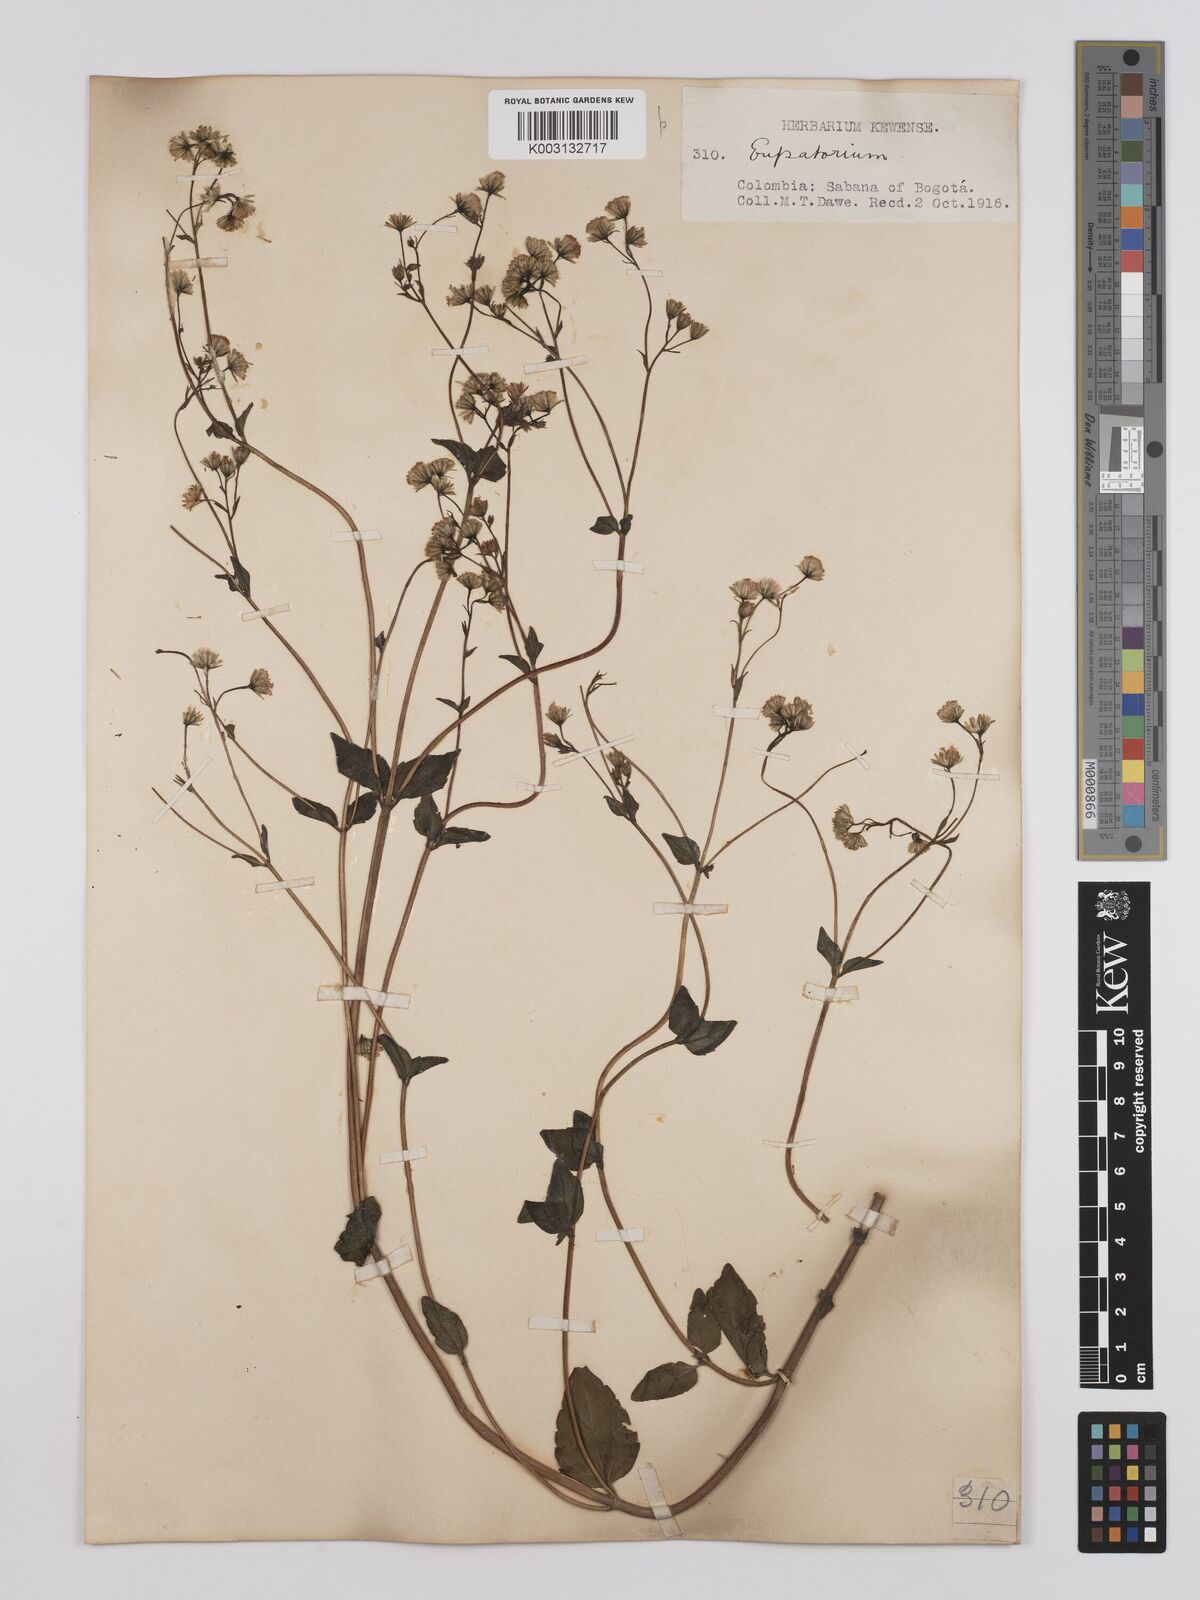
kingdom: Plantae
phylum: Tracheophyta
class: Magnoliopsida
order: Asterales
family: Asteraceae
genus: Ageratina
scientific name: Ageratina gracilis
